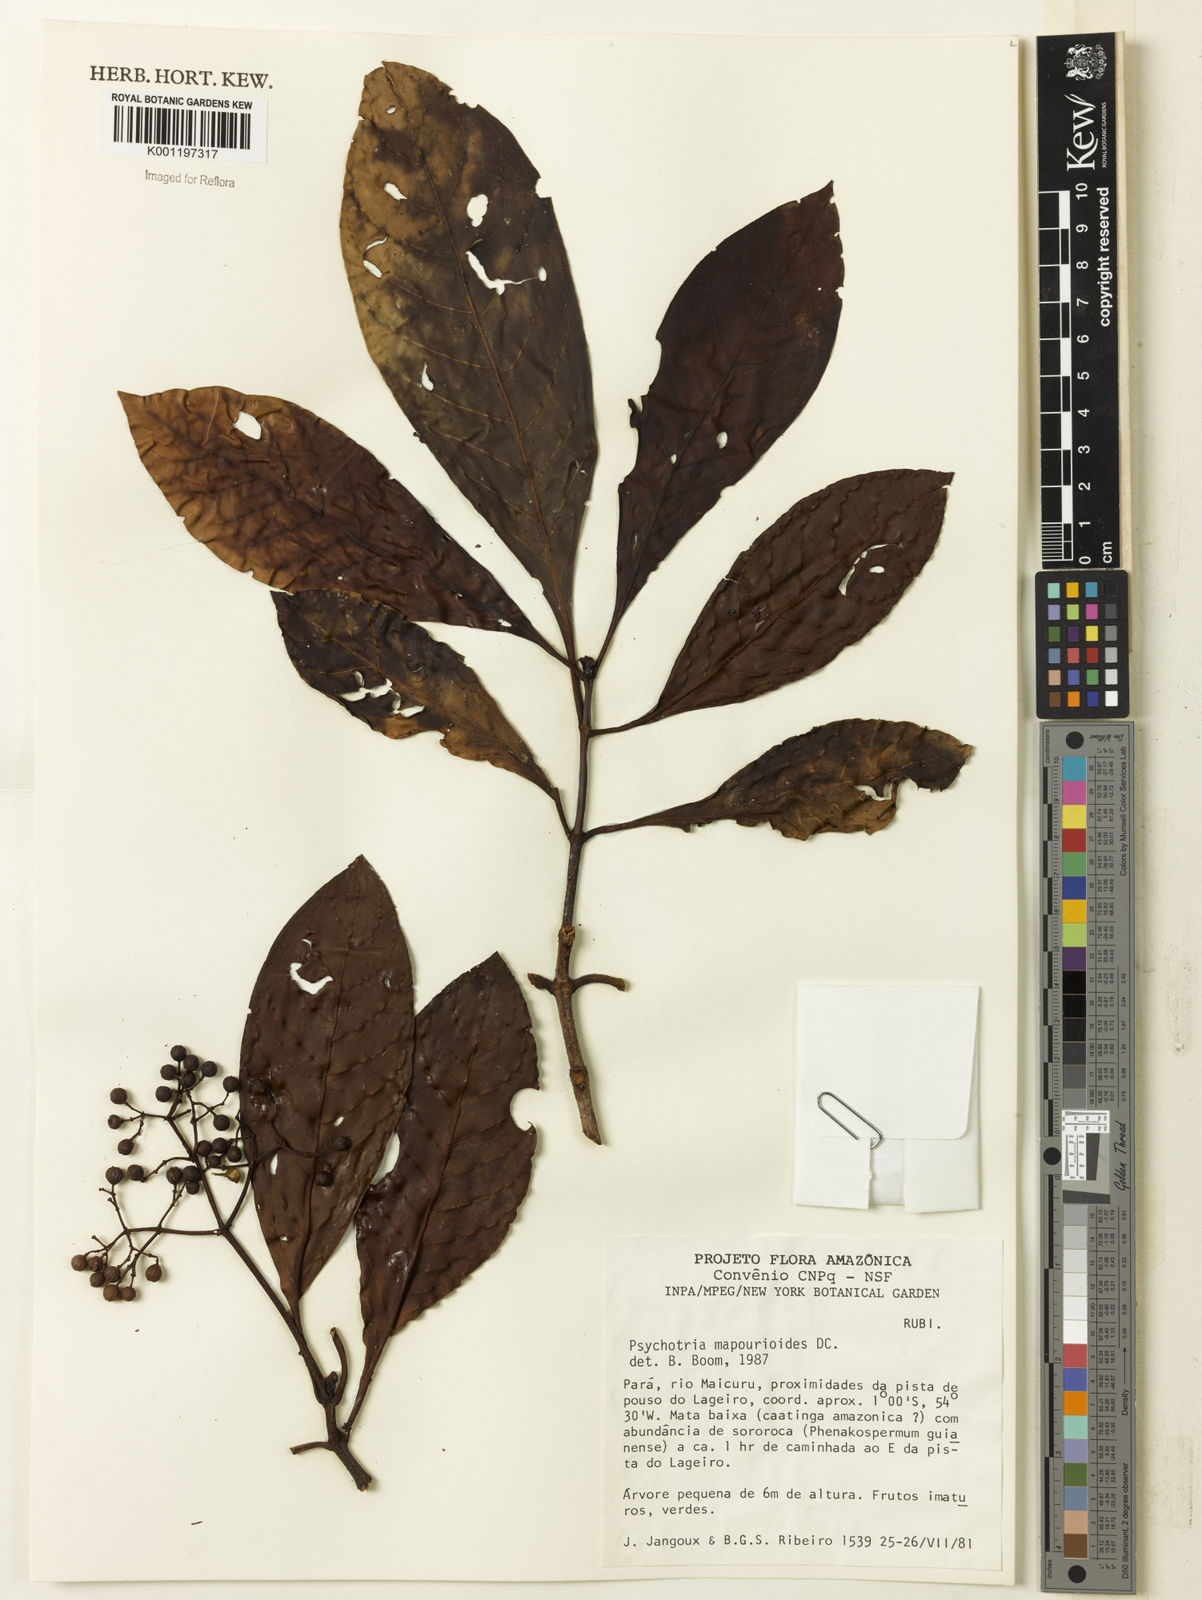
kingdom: Plantae
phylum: Tracheophyta
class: Magnoliopsida
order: Gentianales
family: Rubiaceae
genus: Psychotria
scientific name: Psychotria pedunculosa
